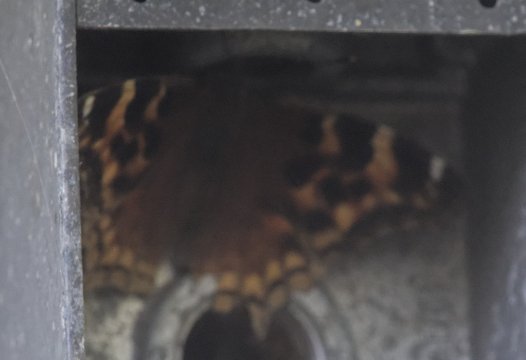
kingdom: Animalia
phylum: Arthropoda
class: Insecta
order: Lepidoptera
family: Nymphalidae
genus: Polygonia
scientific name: Polygonia vaualbum
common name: Compton Tortoiseshell
